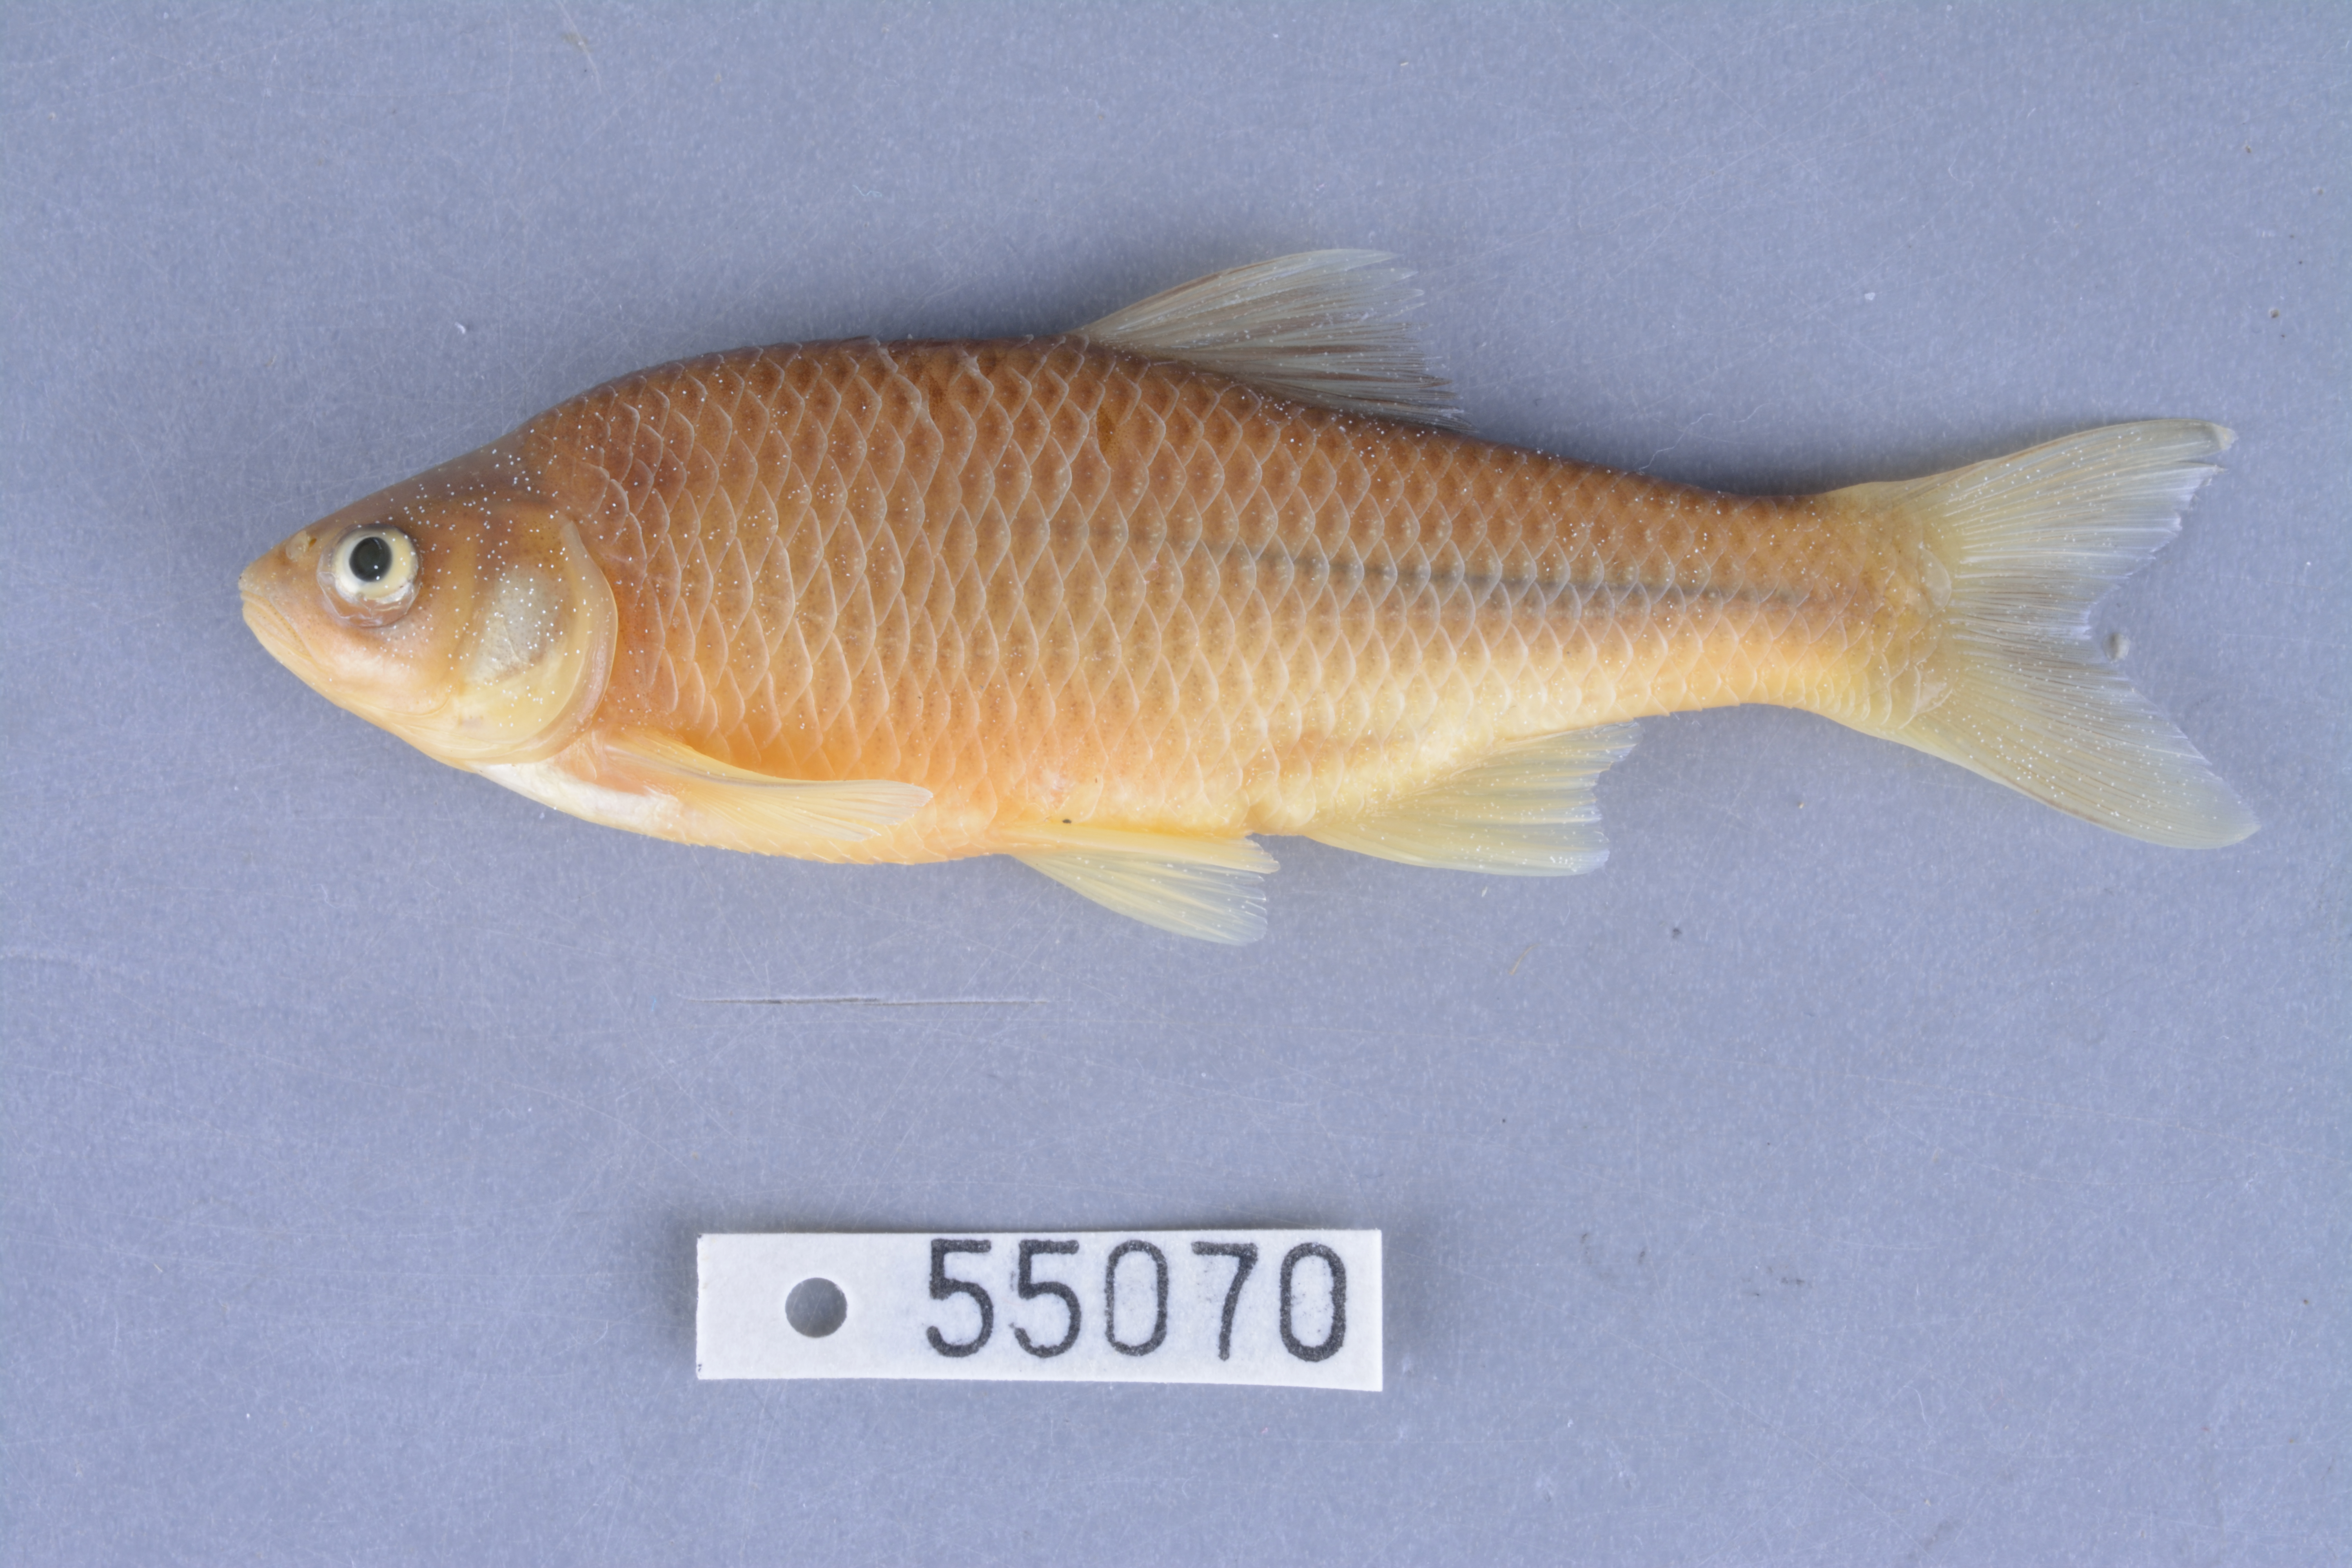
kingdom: Animalia
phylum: Chordata
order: Cypriniformes
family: Cyprinidae
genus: Cyprinella
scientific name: Cyprinella lutrensis
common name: Red shiner
